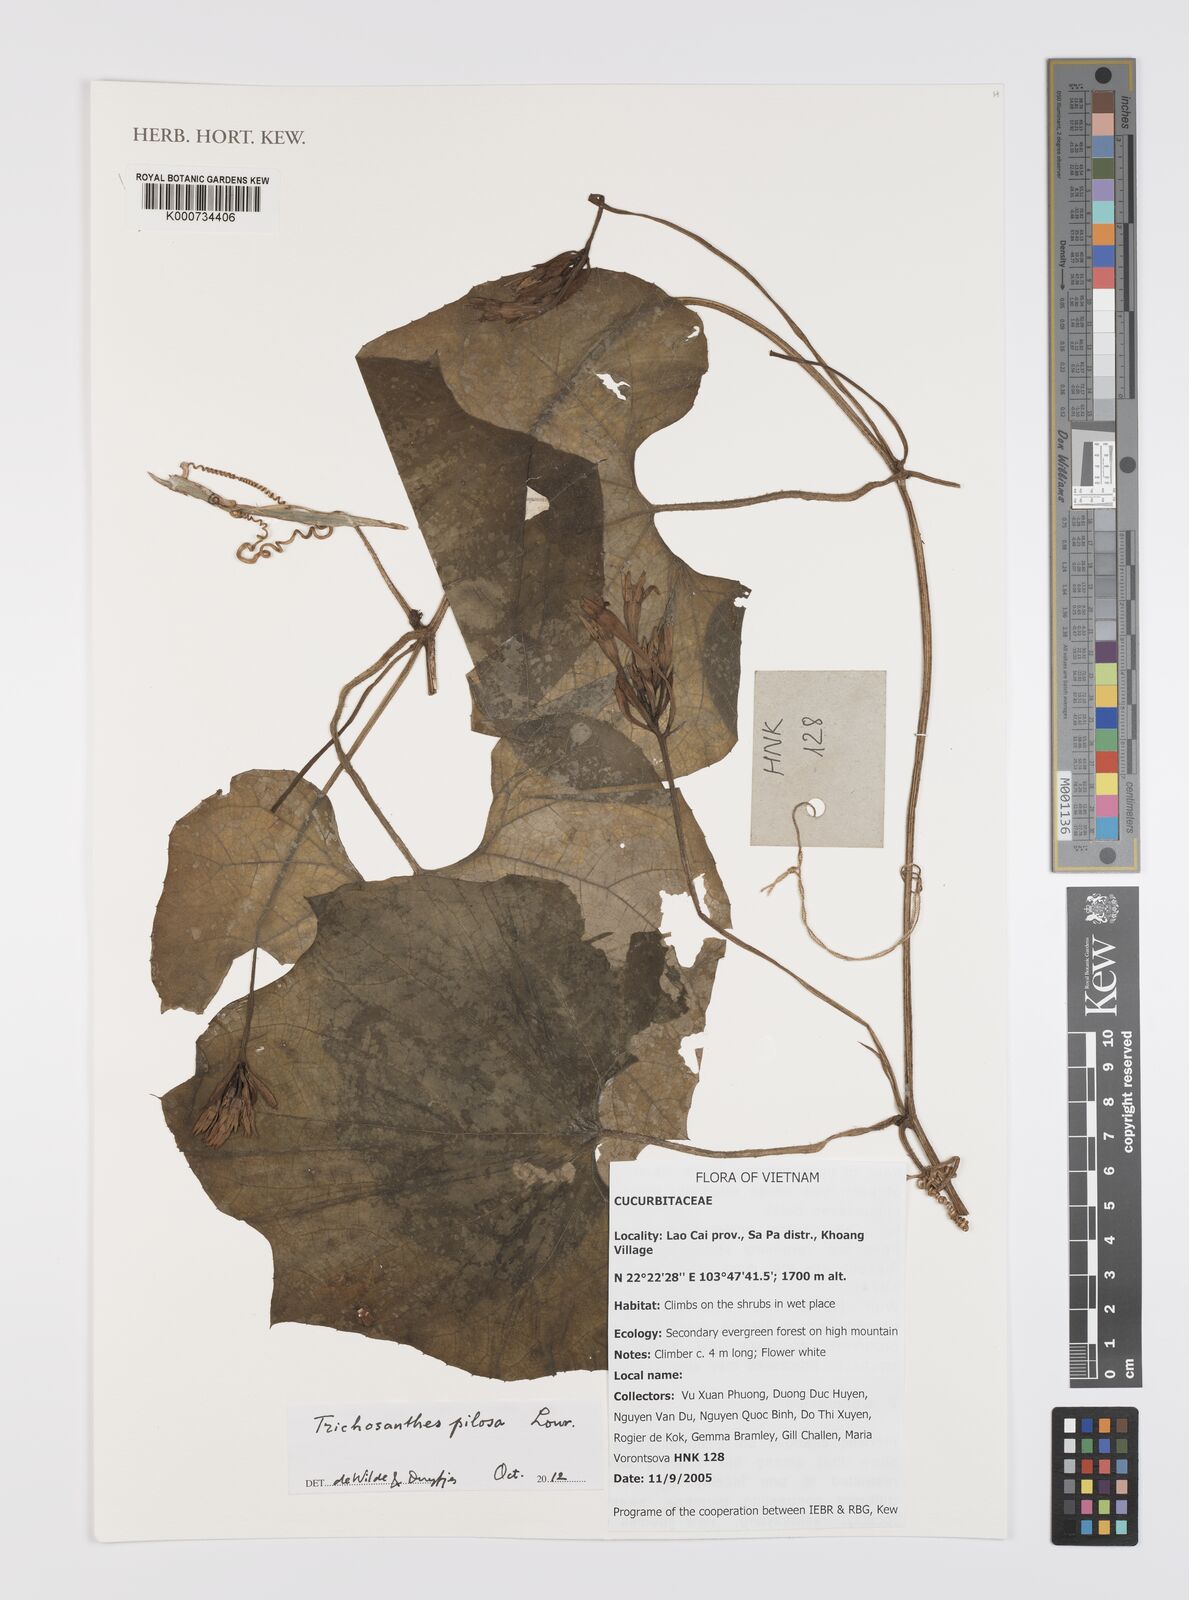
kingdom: Plantae
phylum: Tracheophyta
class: Magnoliopsida
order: Cucurbitales
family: Cucurbitaceae
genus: Trichosanthes
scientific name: Trichosanthes pilosa
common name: Snake gourd
